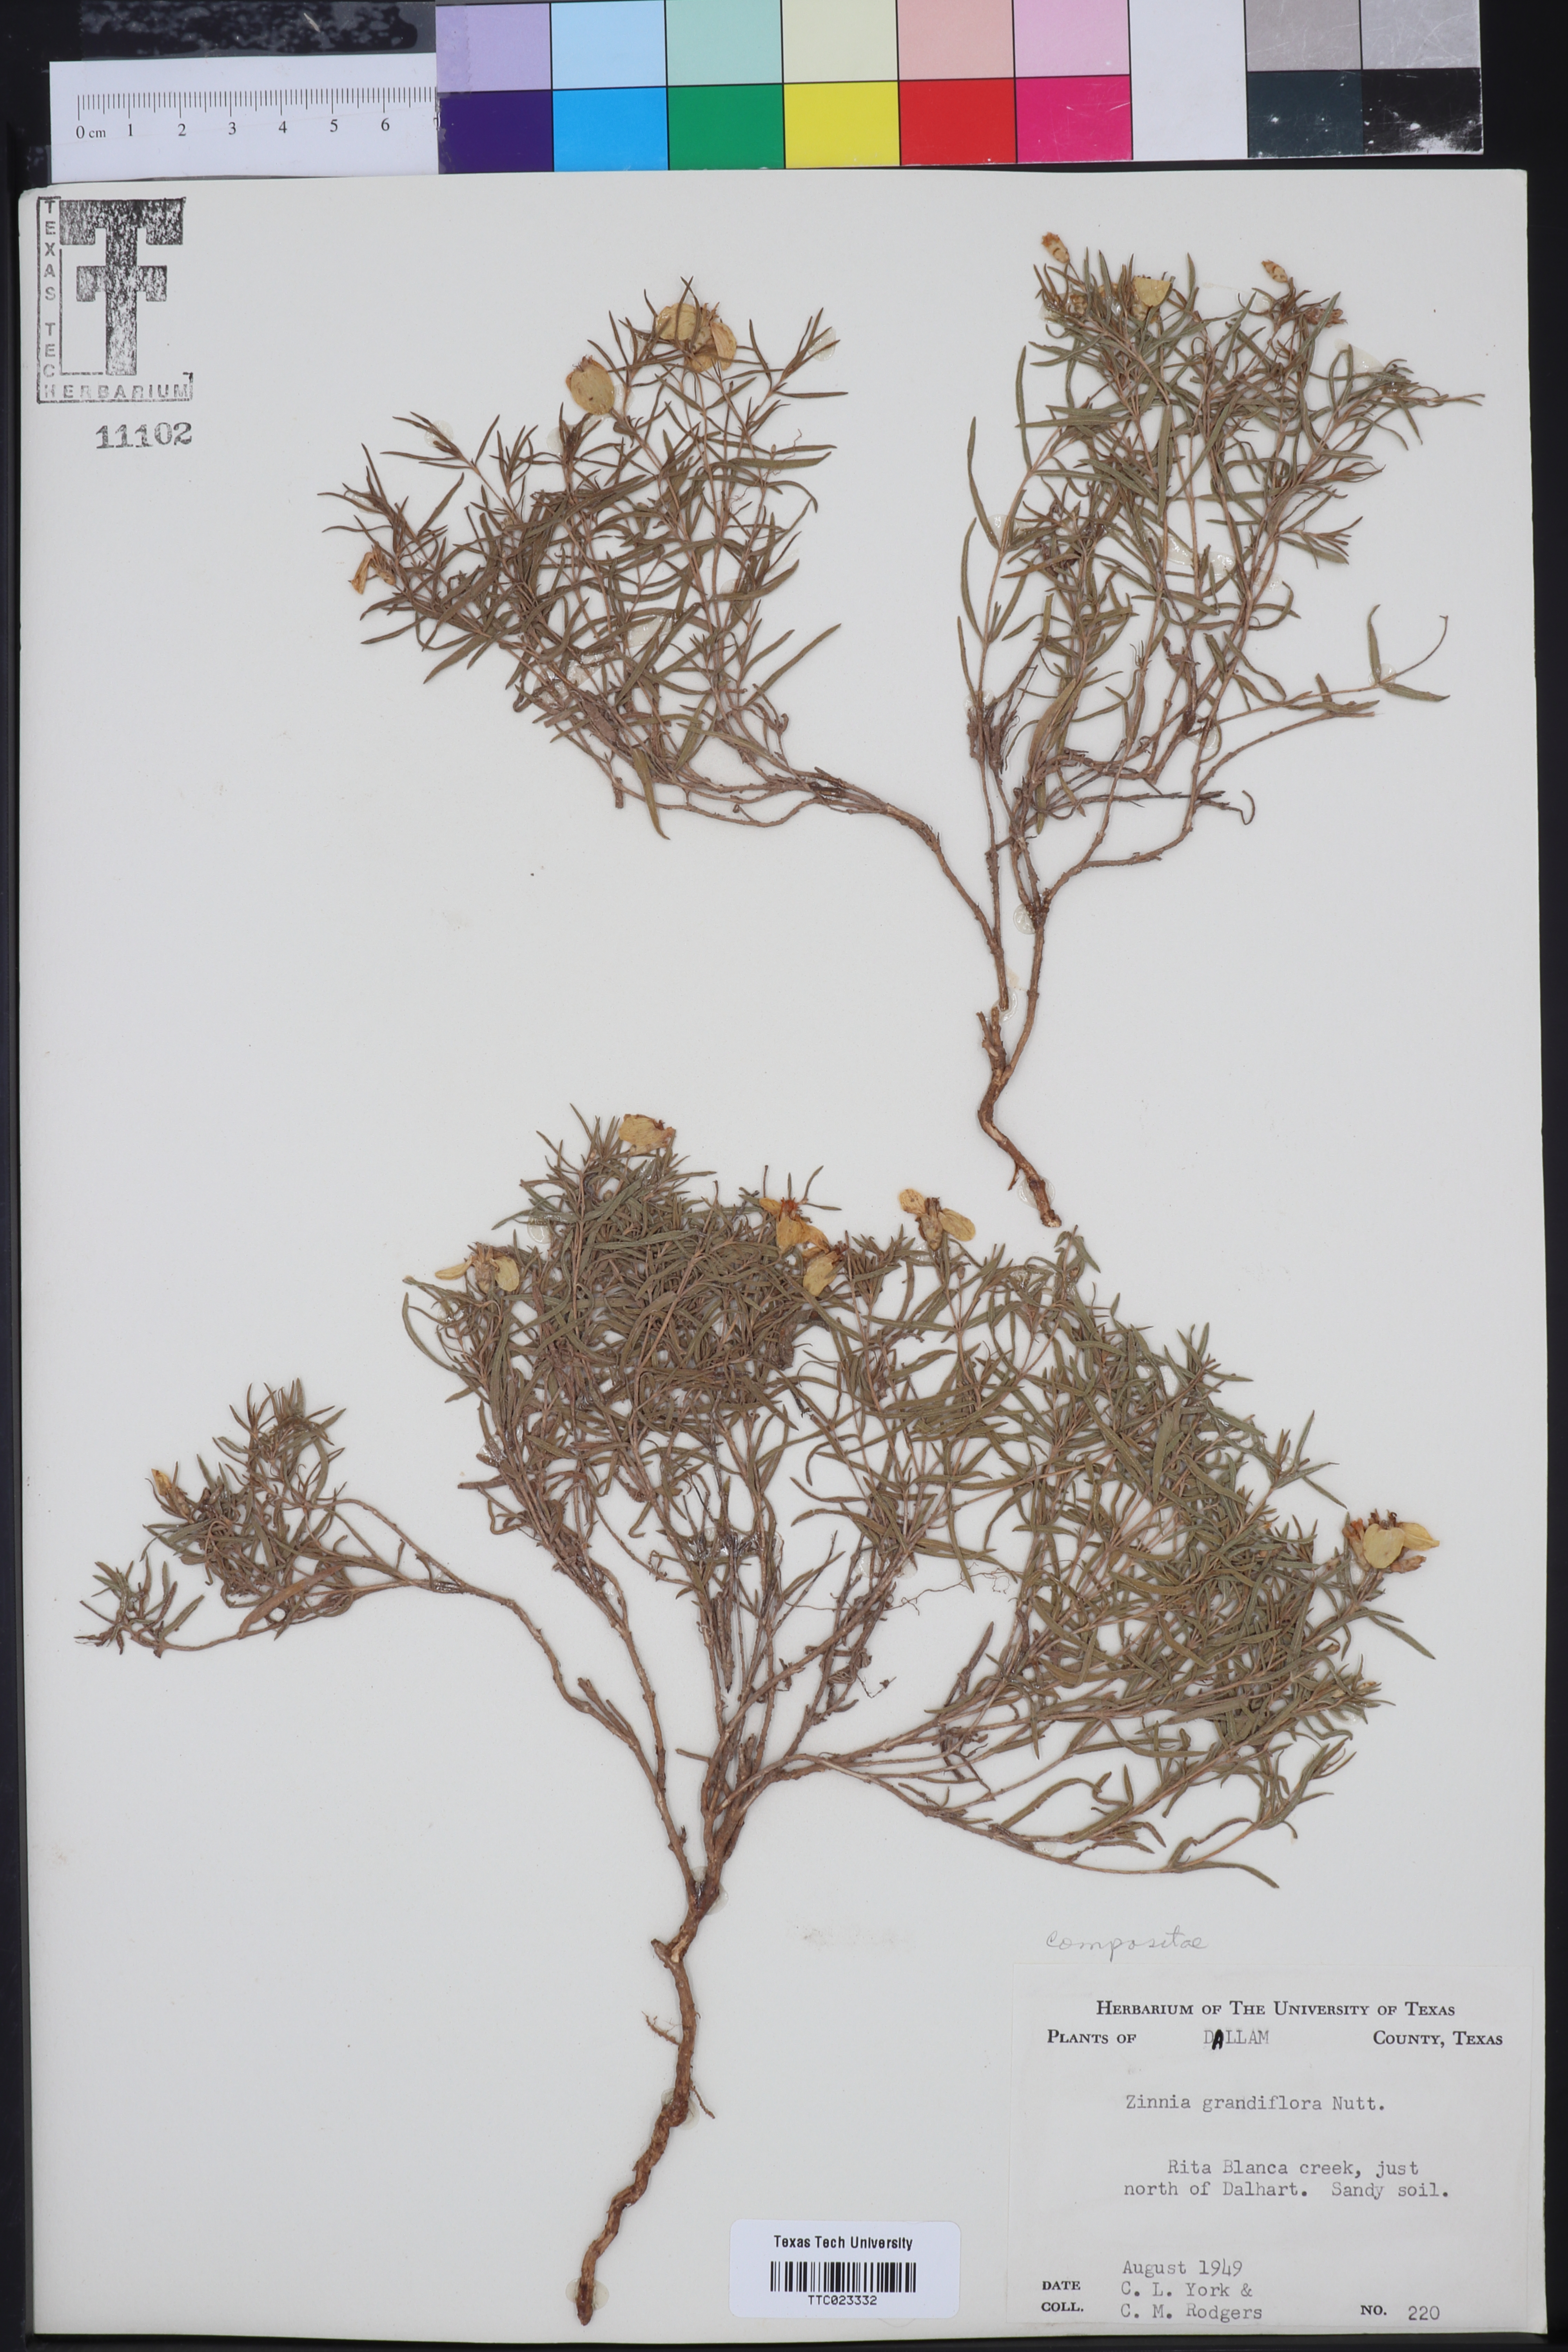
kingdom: Plantae
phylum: Tracheophyta
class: Magnoliopsida
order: Asterales
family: Asteraceae
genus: Zinnia
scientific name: Zinnia grandiflora
